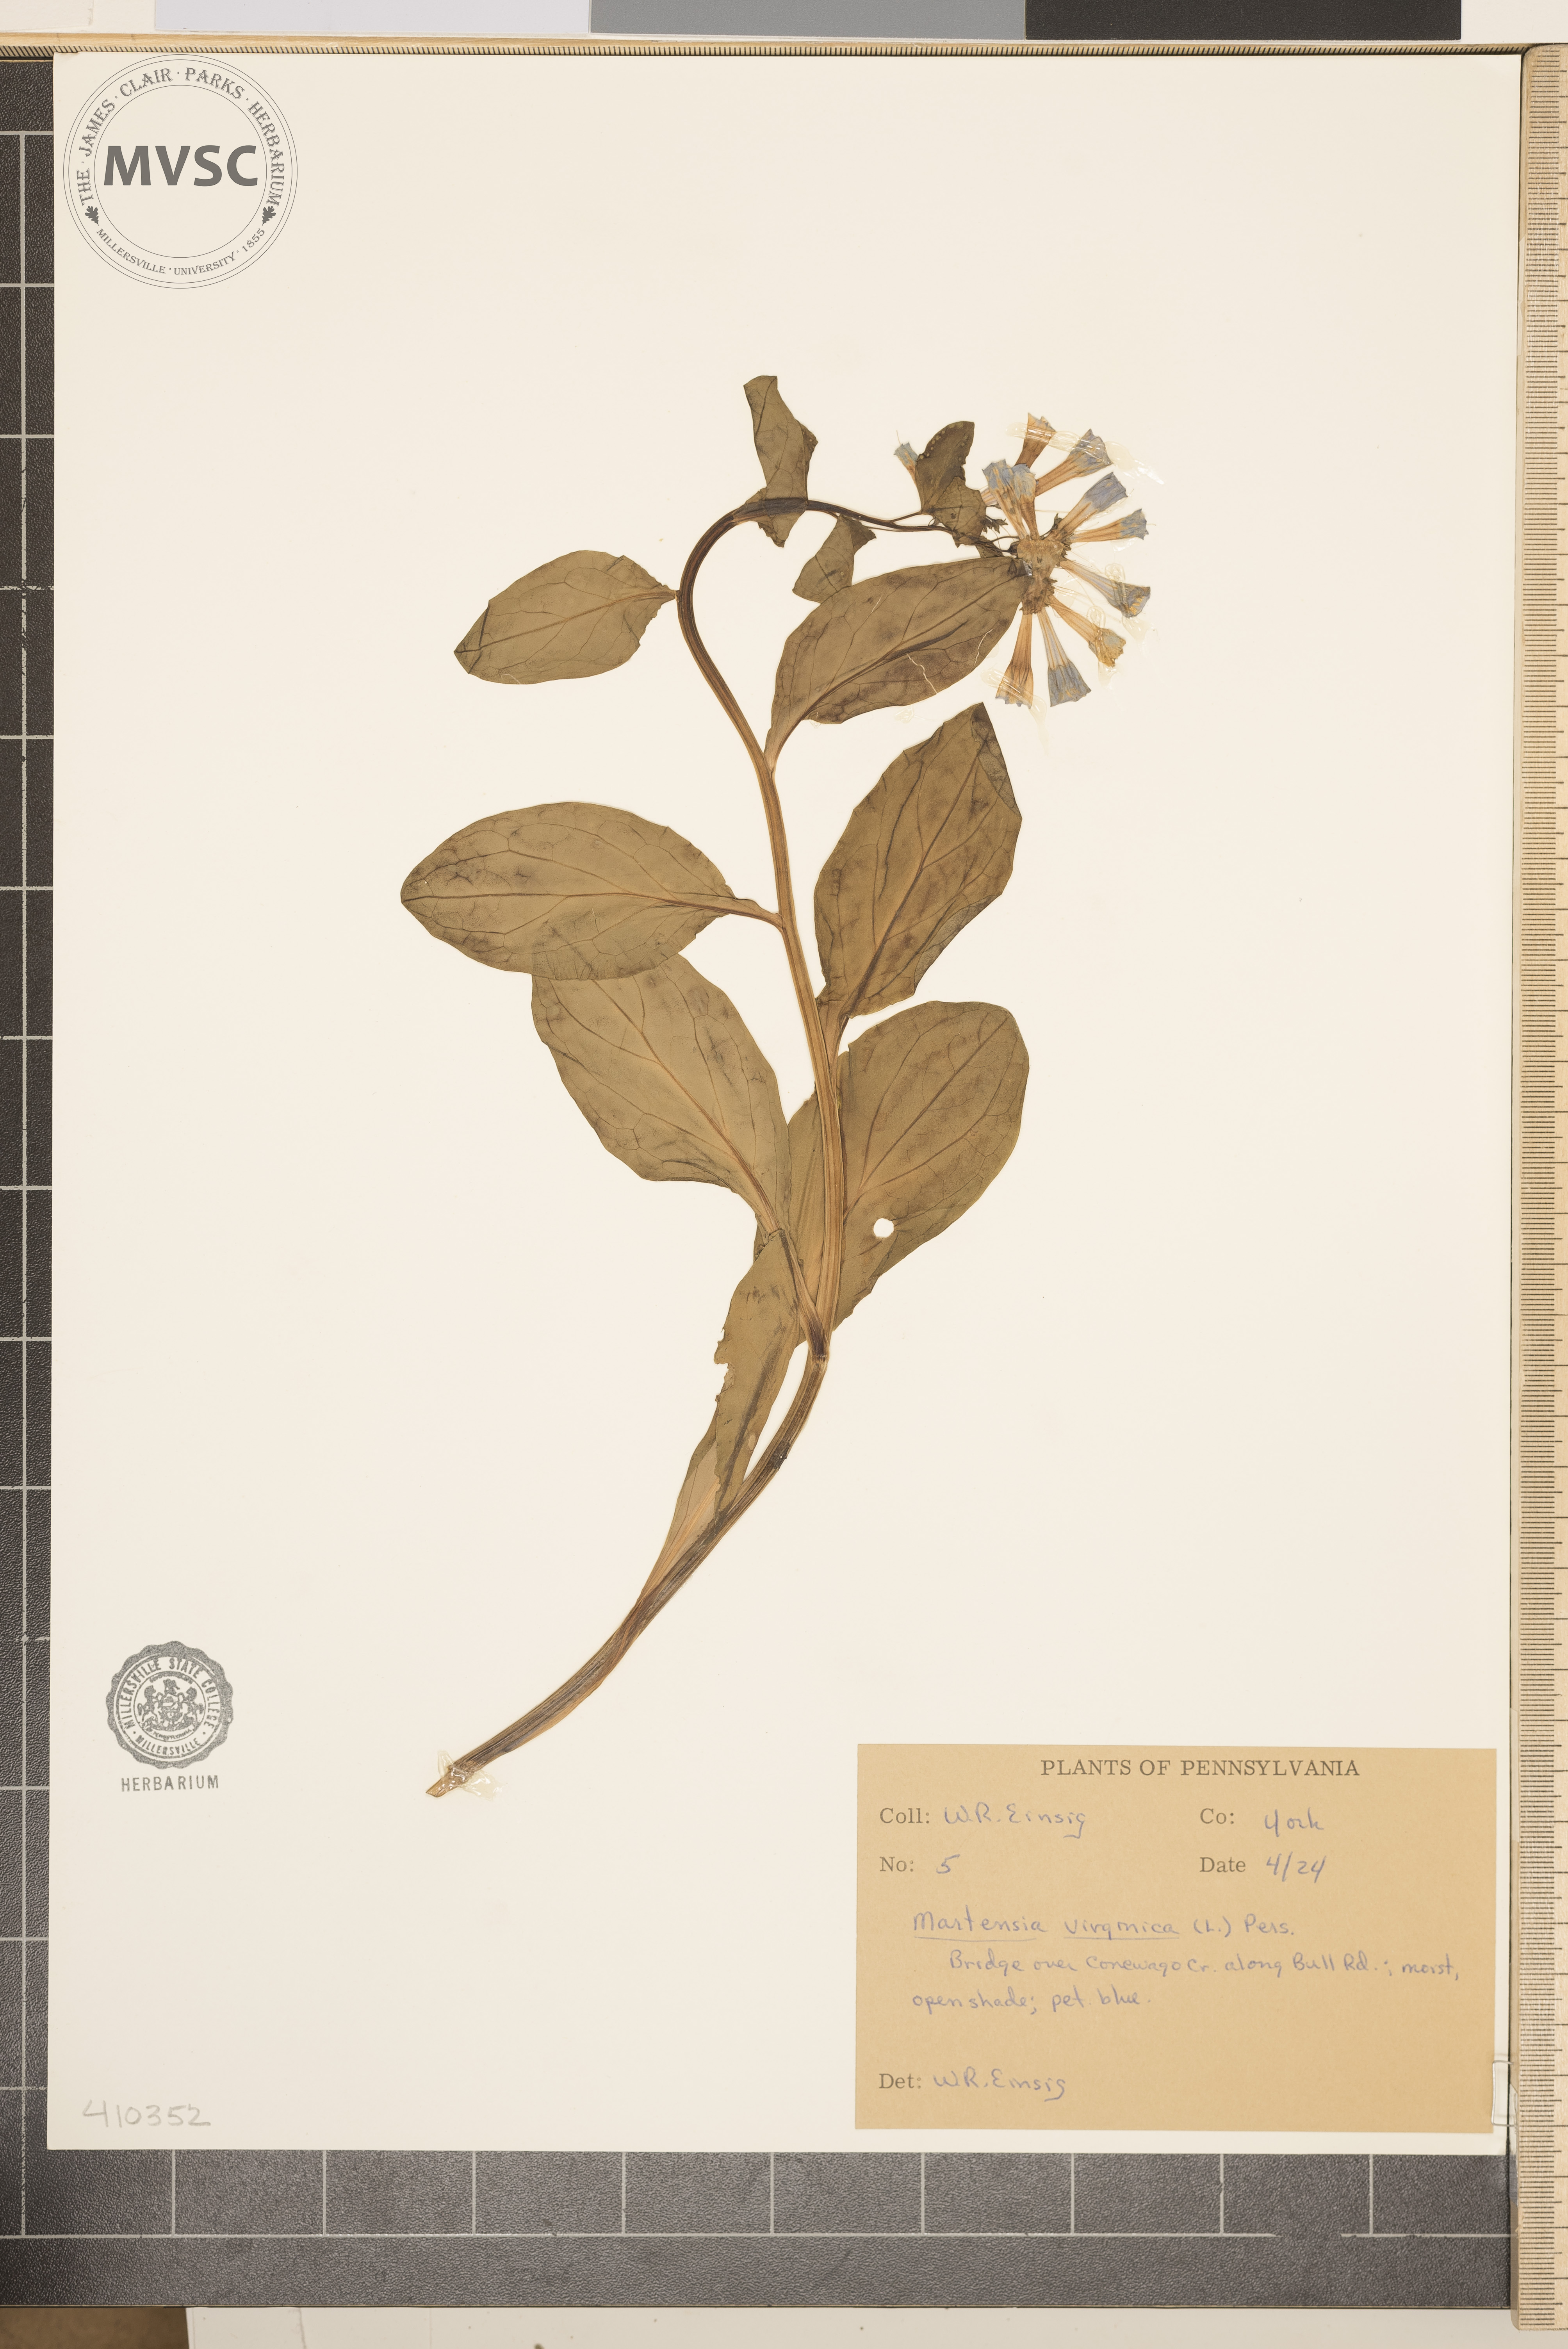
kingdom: Plantae
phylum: Tracheophyta
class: Magnoliopsida
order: Boraginales
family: Boraginaceae
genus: Mertensia
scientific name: Mertensia virginica
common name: Virginia bluebells
